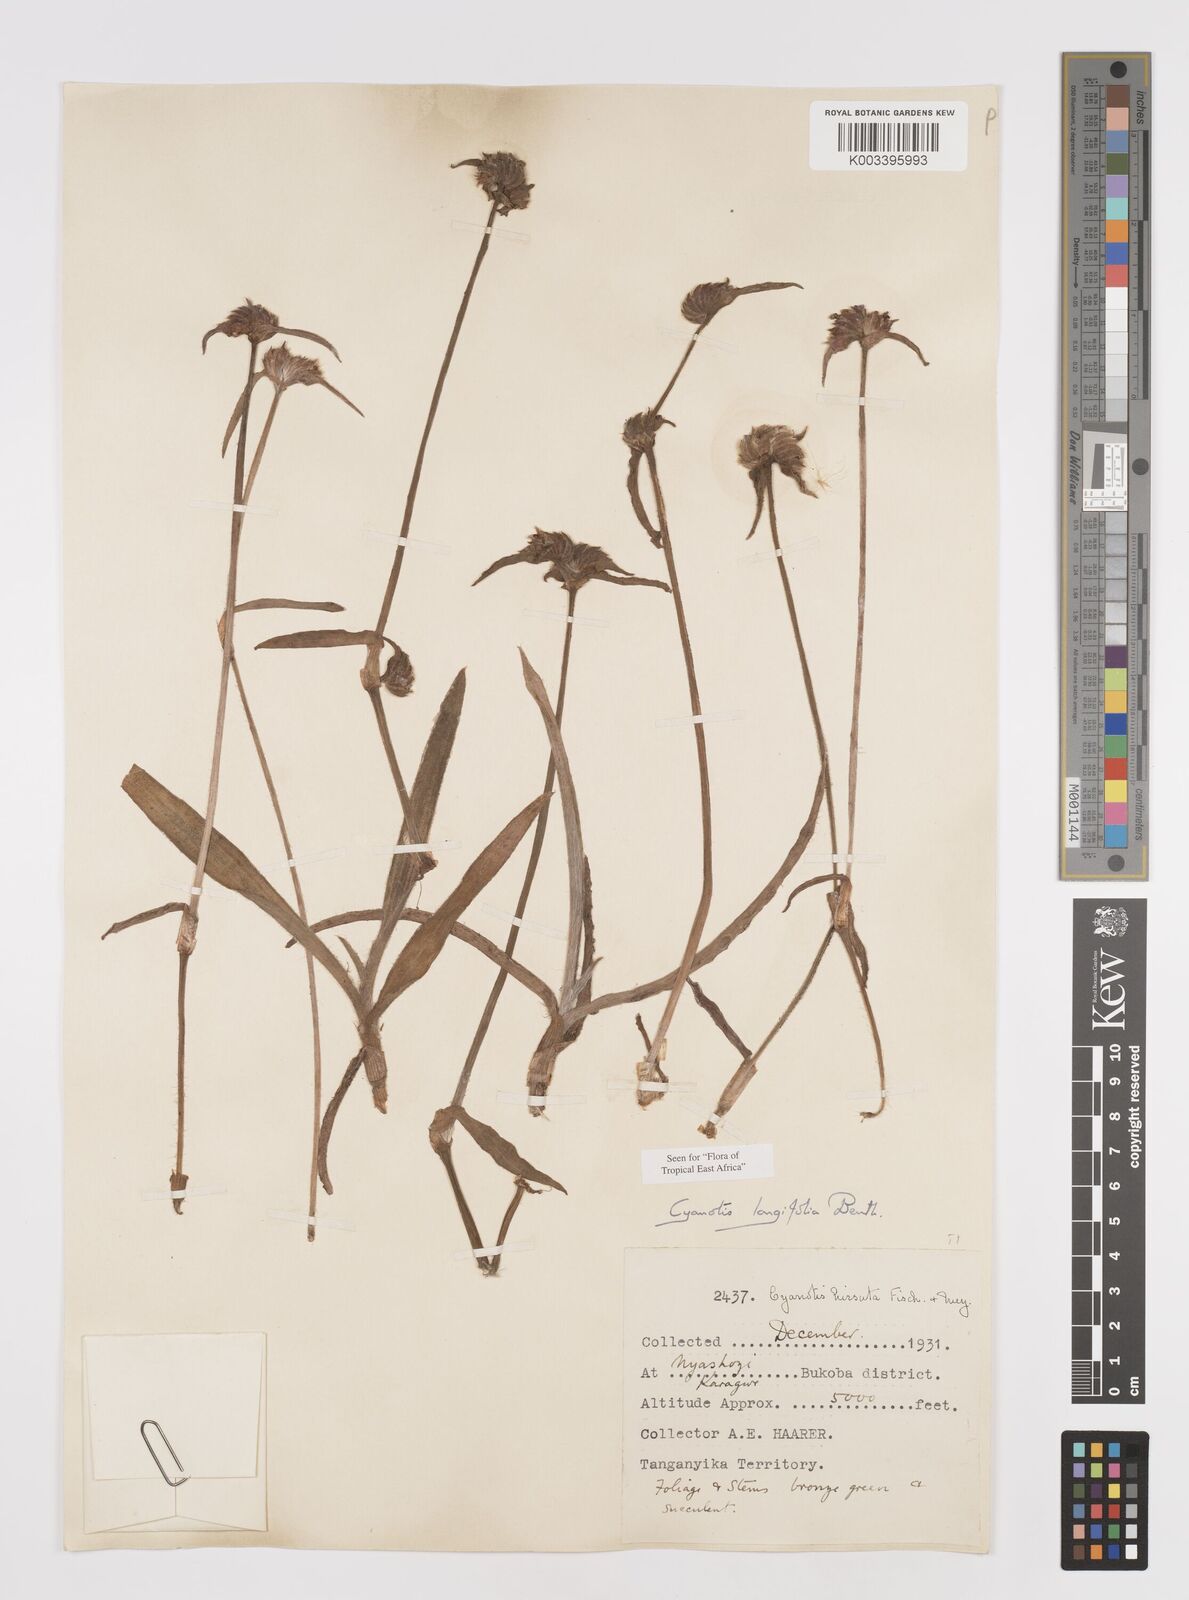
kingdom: Plantae
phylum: Tracheophyta
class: Liliopsida
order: Commelinales
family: Commelinaceae
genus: Cyanotis
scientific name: Cyanotis longifolia
